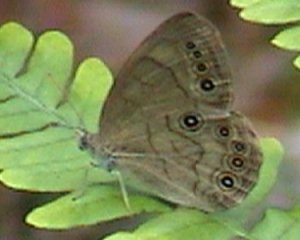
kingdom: Animalia
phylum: Arthropoda
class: Insecta
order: Lepidoptera
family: Nymphalidae
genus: Lethe
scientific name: Lethe eurydice
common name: Appalachian Eyed Brown
